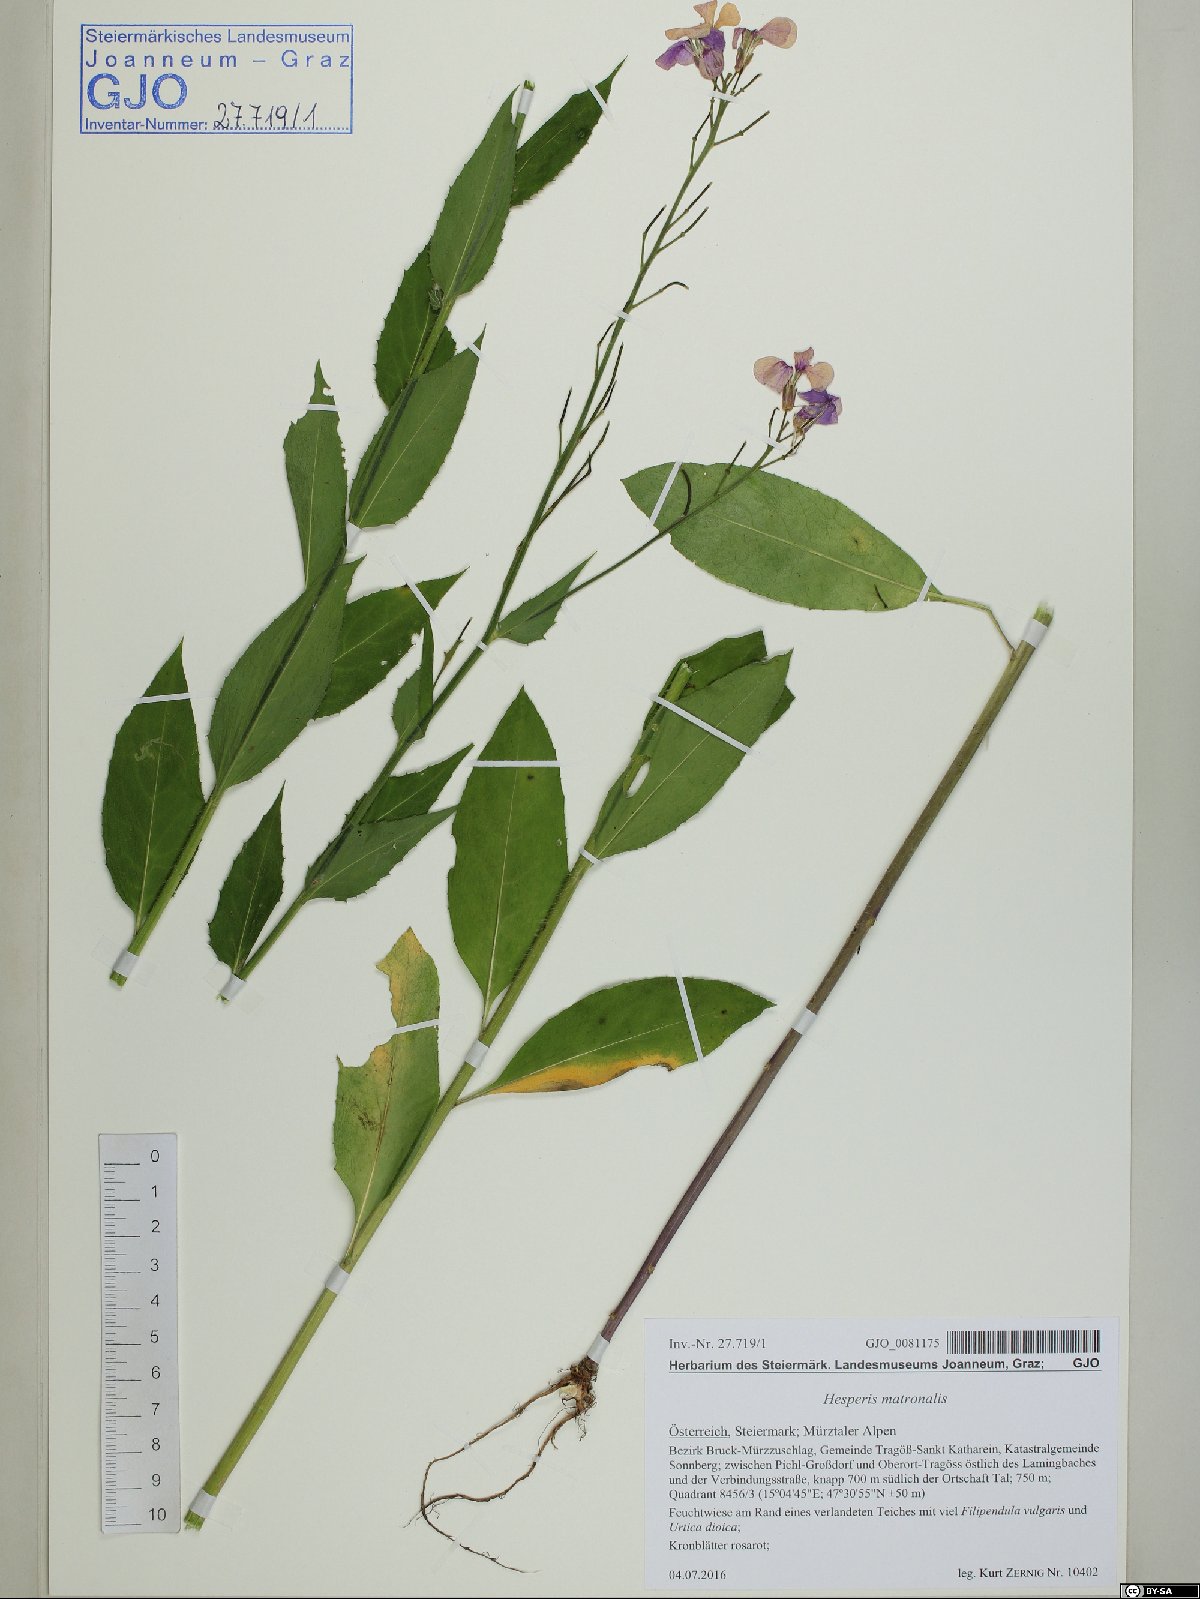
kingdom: Plantae
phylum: Tracheophyta
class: Magnoliopsida
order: Brassicales
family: Brassicaceae
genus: Hesperis
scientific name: Hesperis matronalis
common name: Dame's-violet
